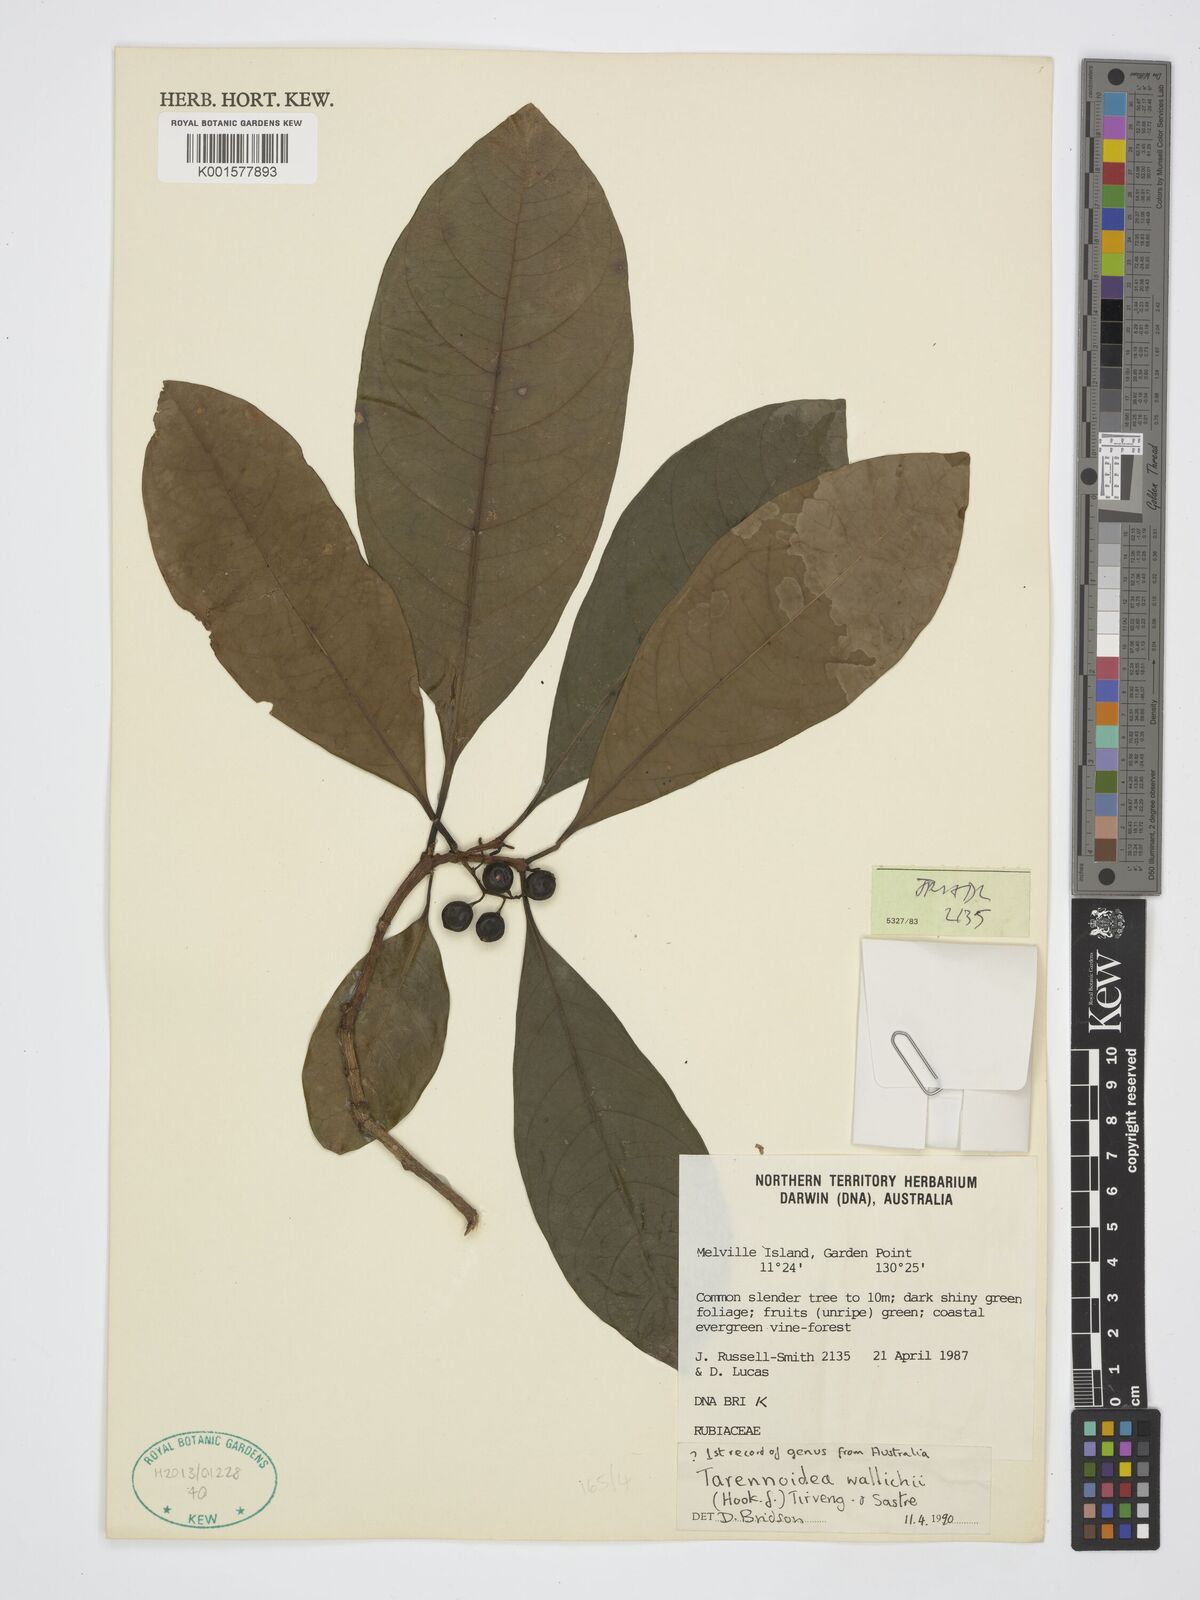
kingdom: Plantae
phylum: Tracheophyta
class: Magnoliopsida
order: Gentianales
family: Rubiaceae
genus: Tarennoidea
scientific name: Tarennoidea wallichii
